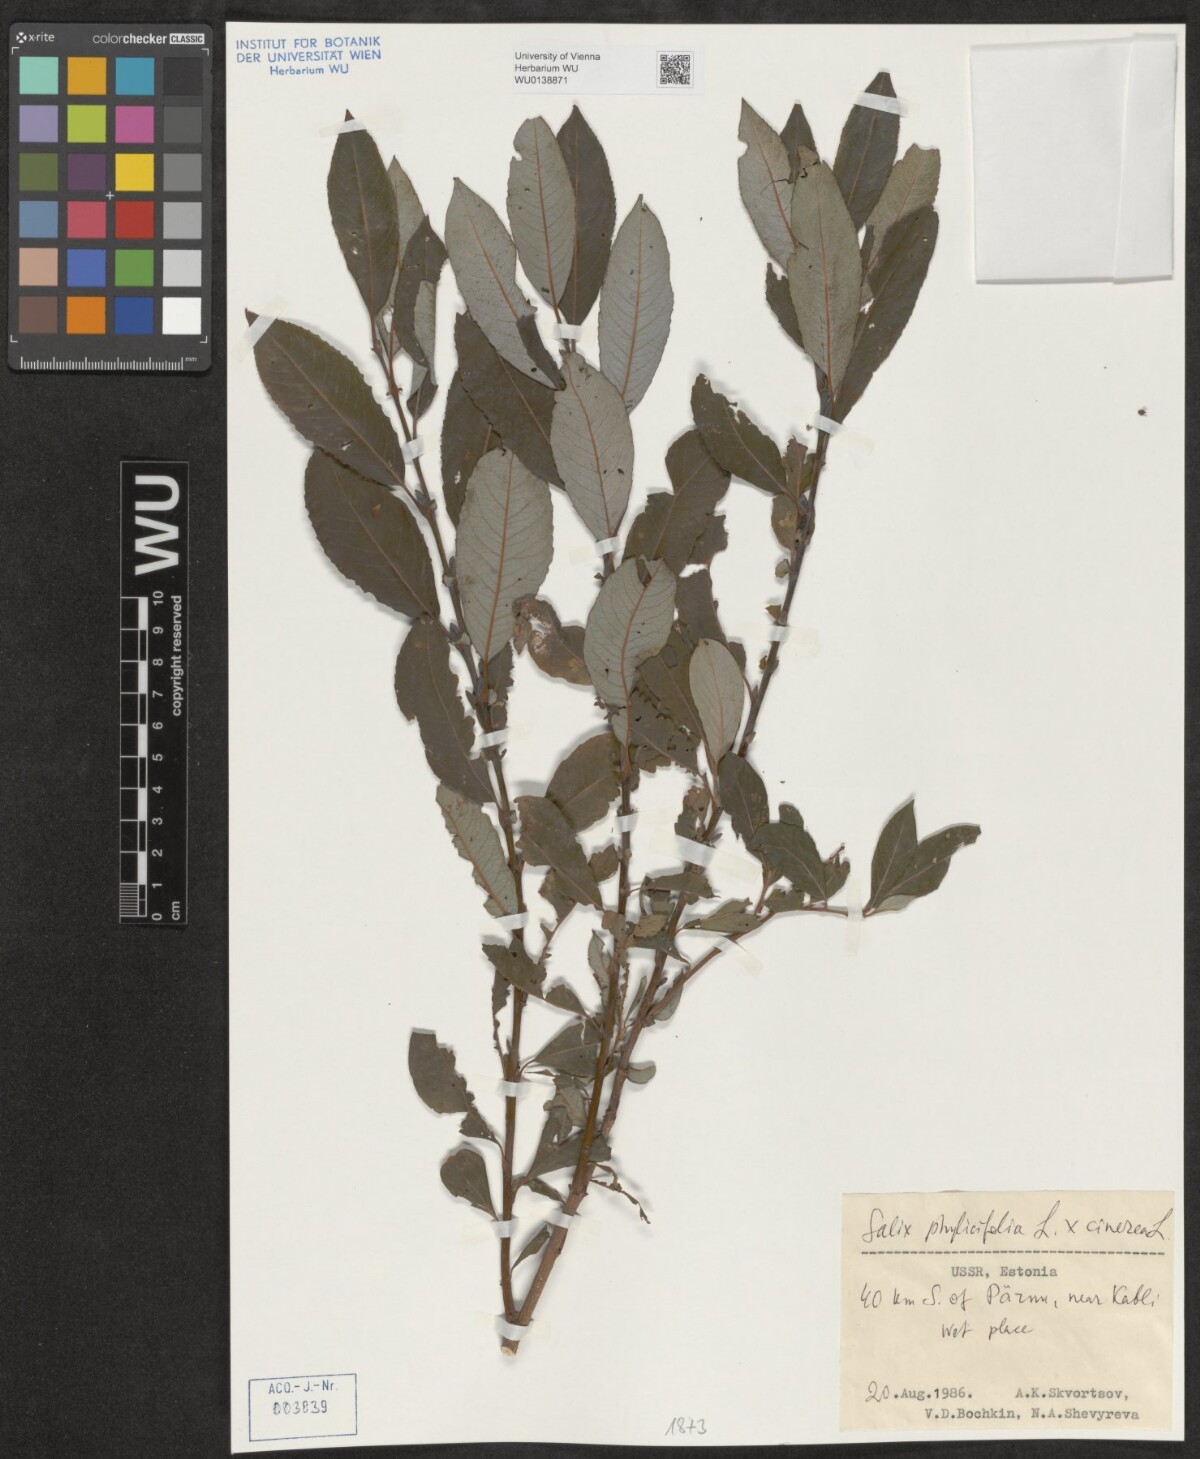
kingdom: Plantae
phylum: Tracheophyta
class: Magnoliopsida
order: Malpighiales
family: Salicaceae
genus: Salix
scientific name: Salix phylicifolia
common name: Tea-leaved willow
